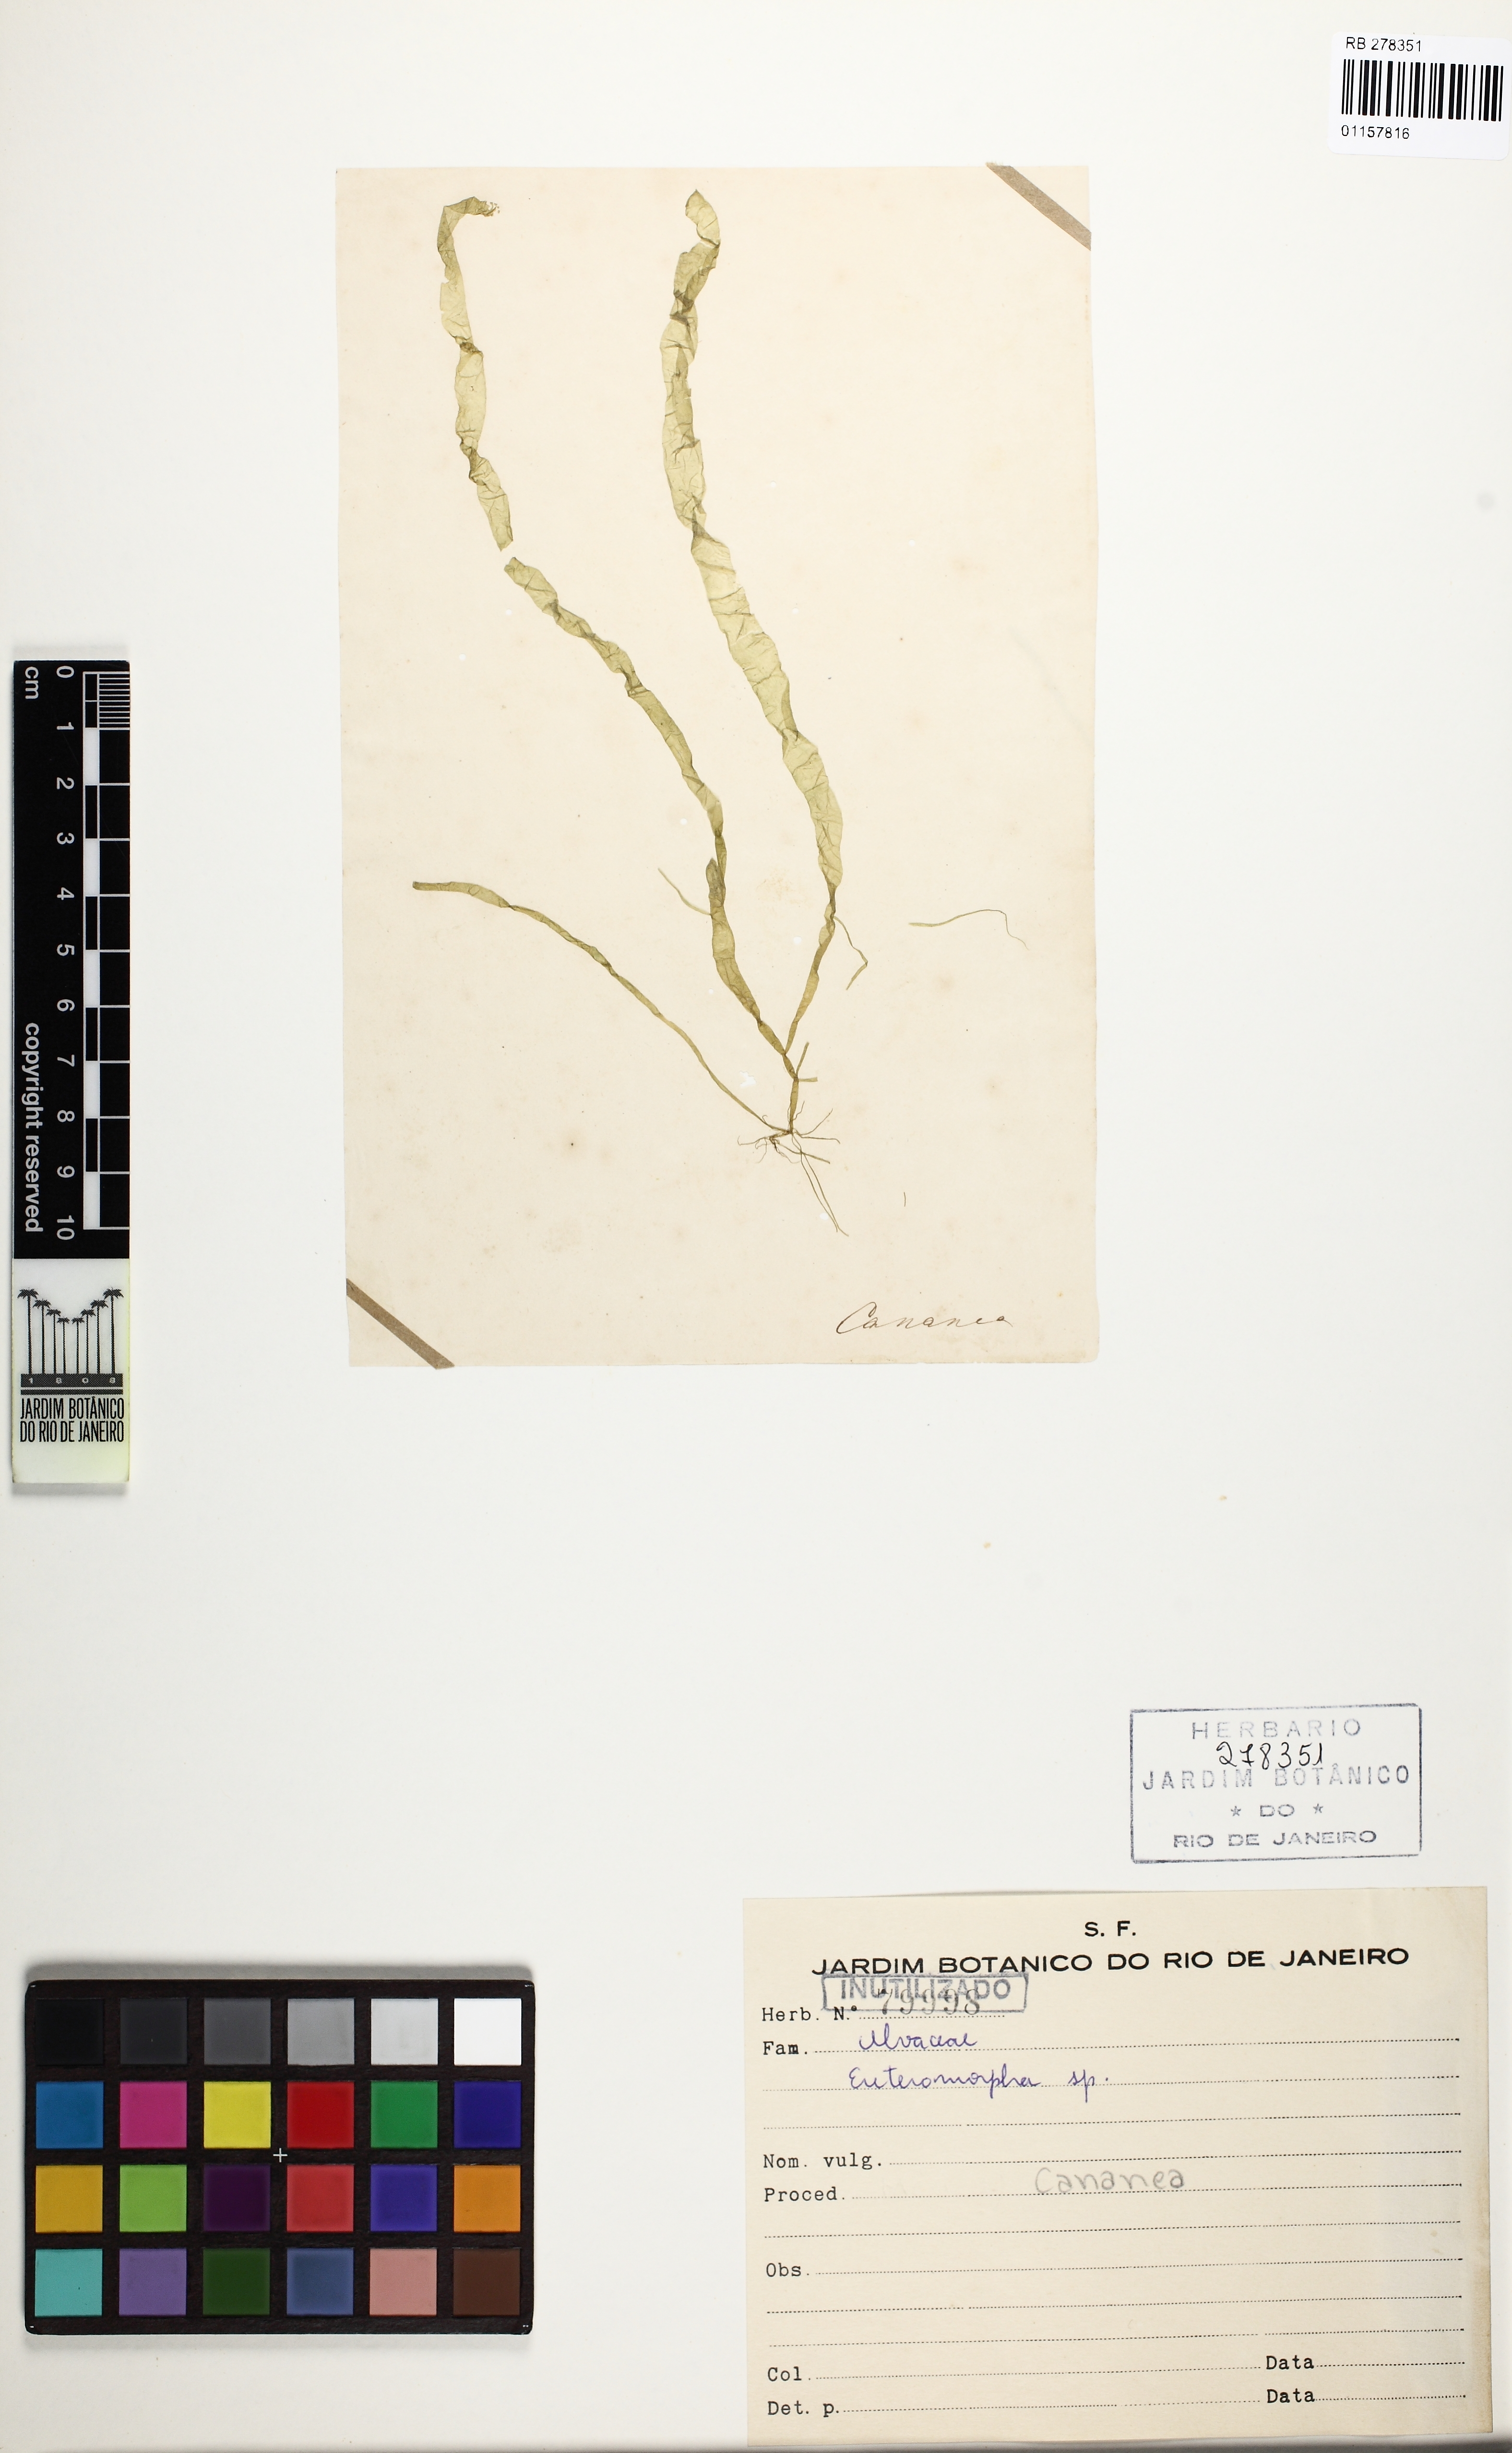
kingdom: Plantae
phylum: Chlorophyta
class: Ulvophyceae
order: Ulvales
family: Ulvaceae
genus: Ulva
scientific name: Ulva
